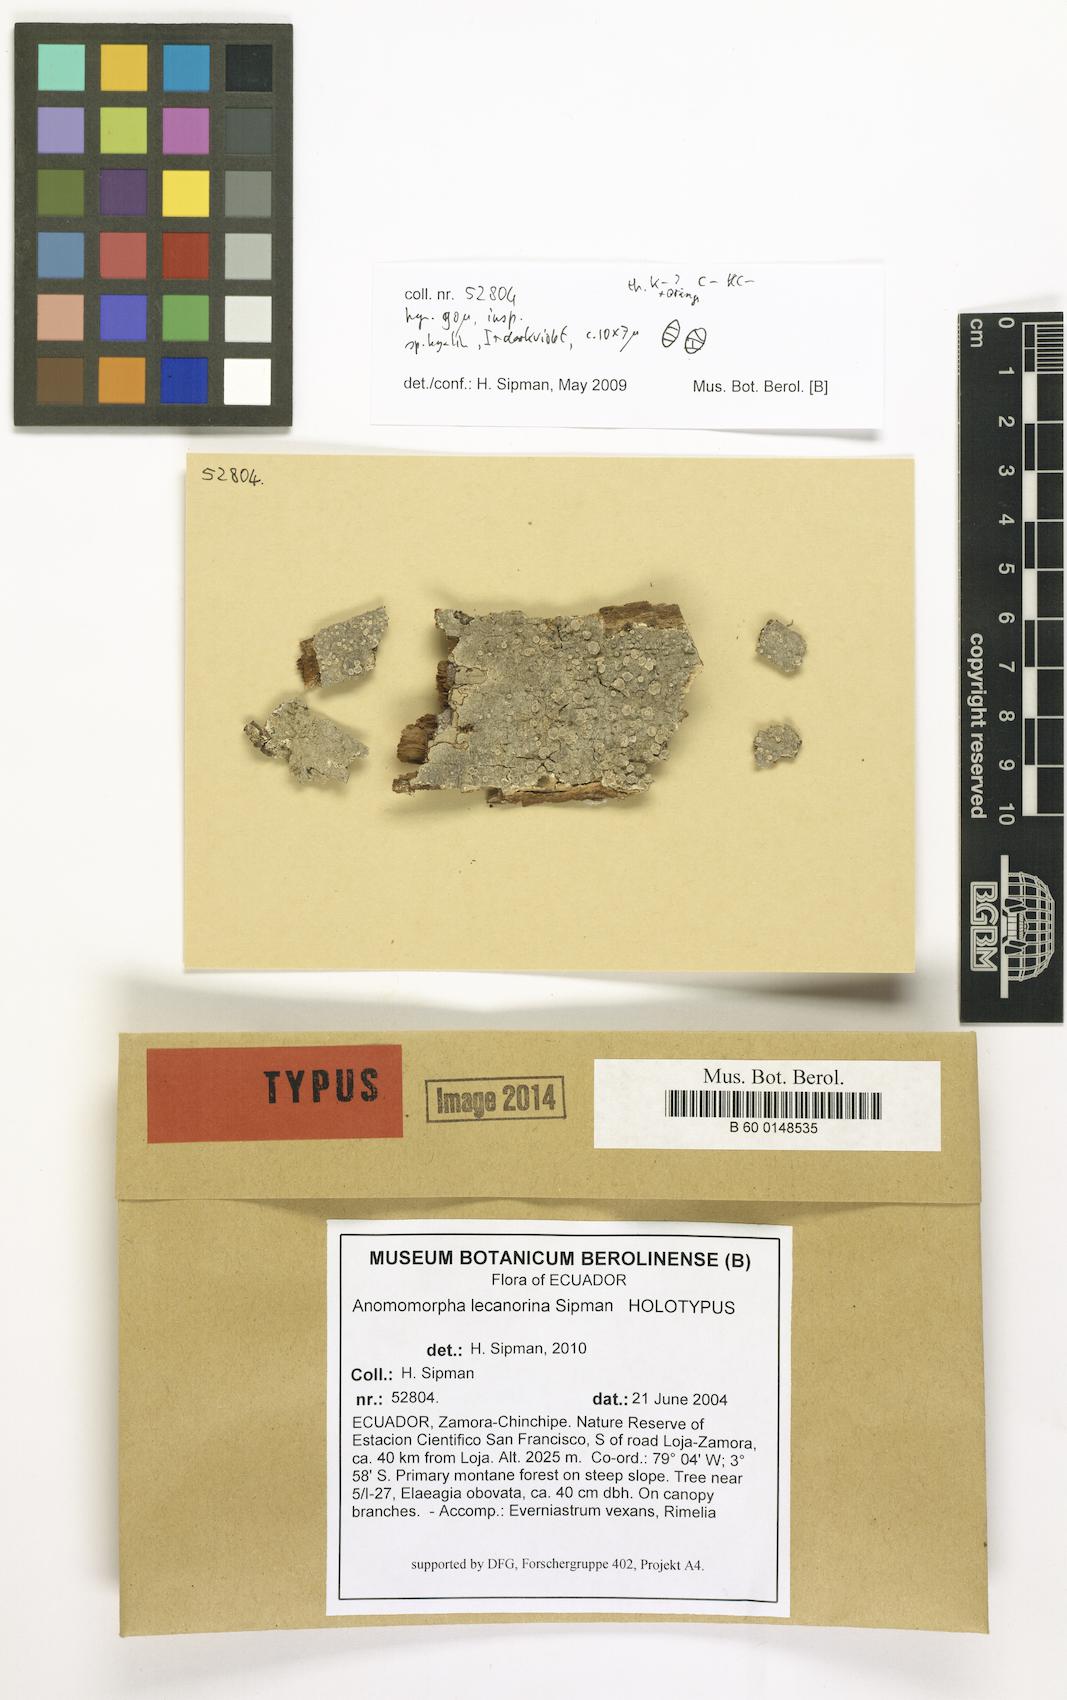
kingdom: Fungi
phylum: Ascomycota
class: Lecanoromycetes
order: Ostropales
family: Graphidaceae
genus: Anomomorpha
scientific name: Anomomorpha lecanorina
